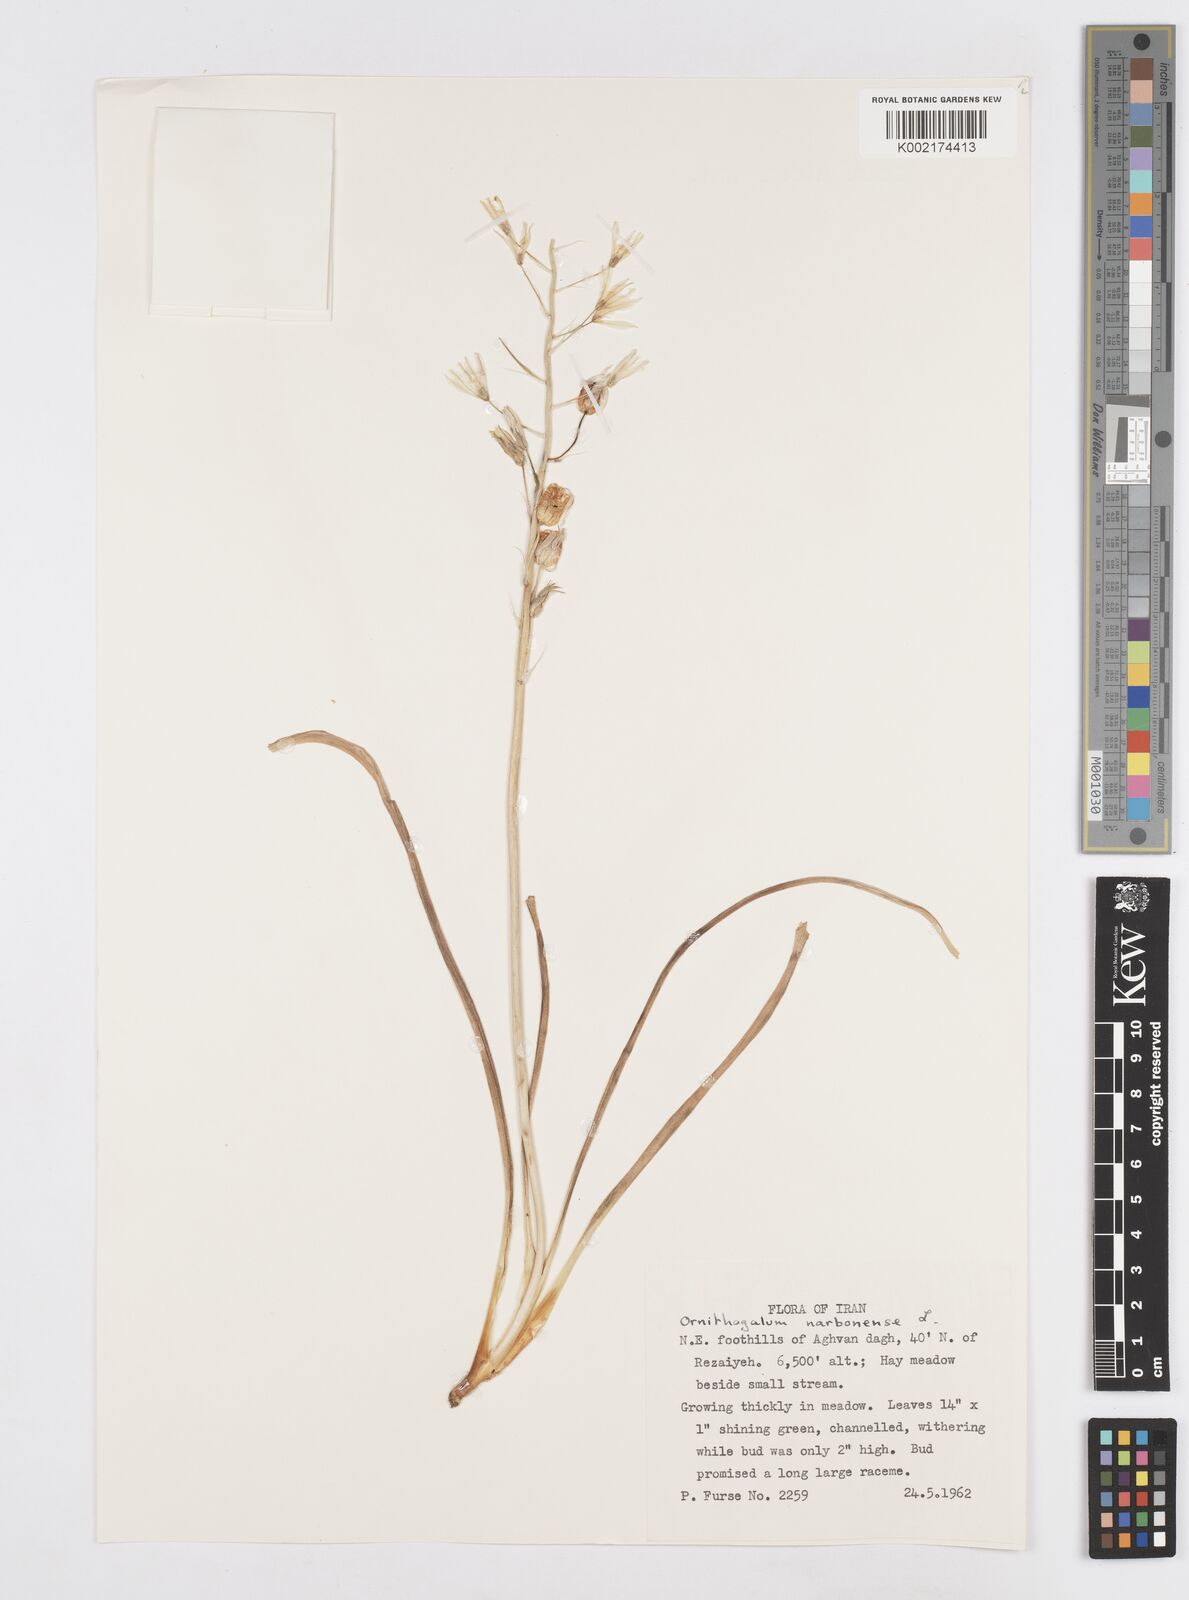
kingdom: Plantae
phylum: Tracheophyta
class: Liliopsida
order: Asparagales
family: Asparagaceae
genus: Ornithogalum
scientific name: Ornithogalum narbonense
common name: Bath-asparagus
